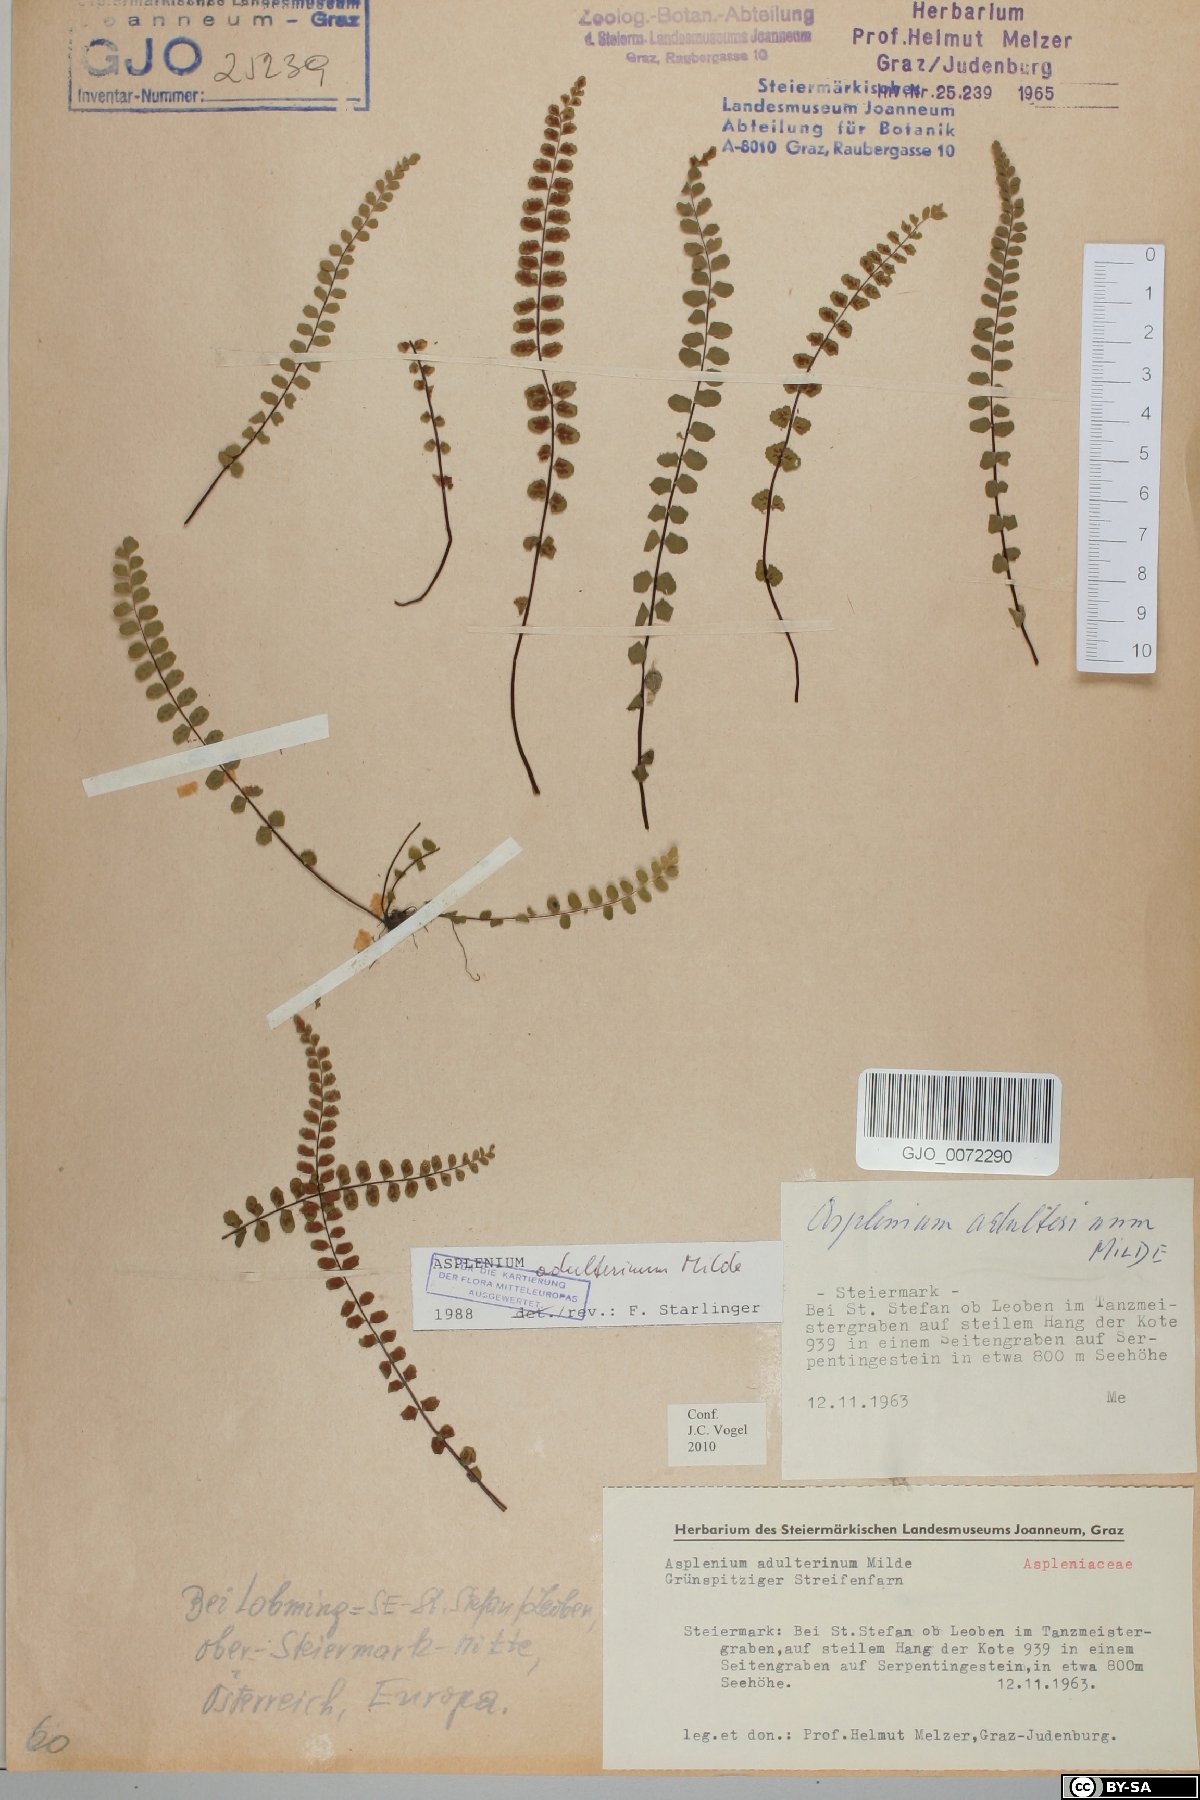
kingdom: Plantae
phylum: Tracheophyta
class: Polypodiopsida
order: Polypodiales
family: Aspleniaceae
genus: Asplenium
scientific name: Asplenium adulterinum
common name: Adulterated spleenwort
